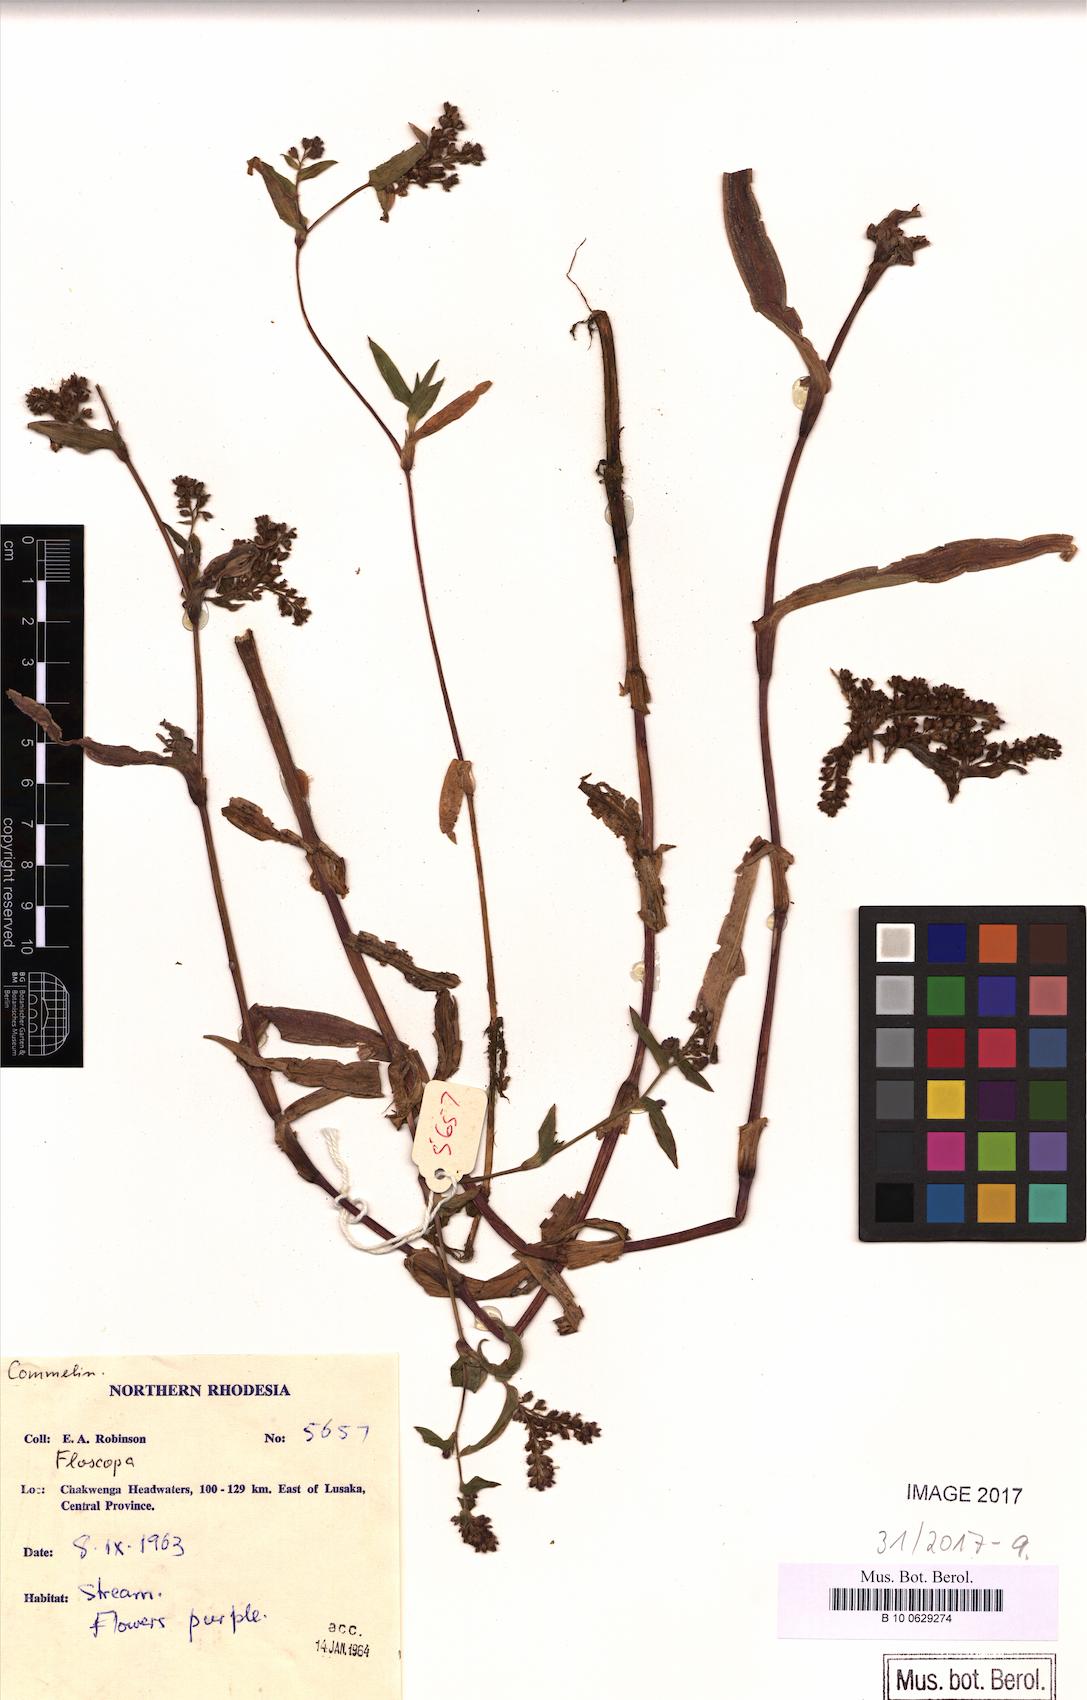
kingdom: Plantae
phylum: Tracheophyta
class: Liliopsida
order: Commelinales
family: Commelinaceae
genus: Floscopa
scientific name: Floscopa
